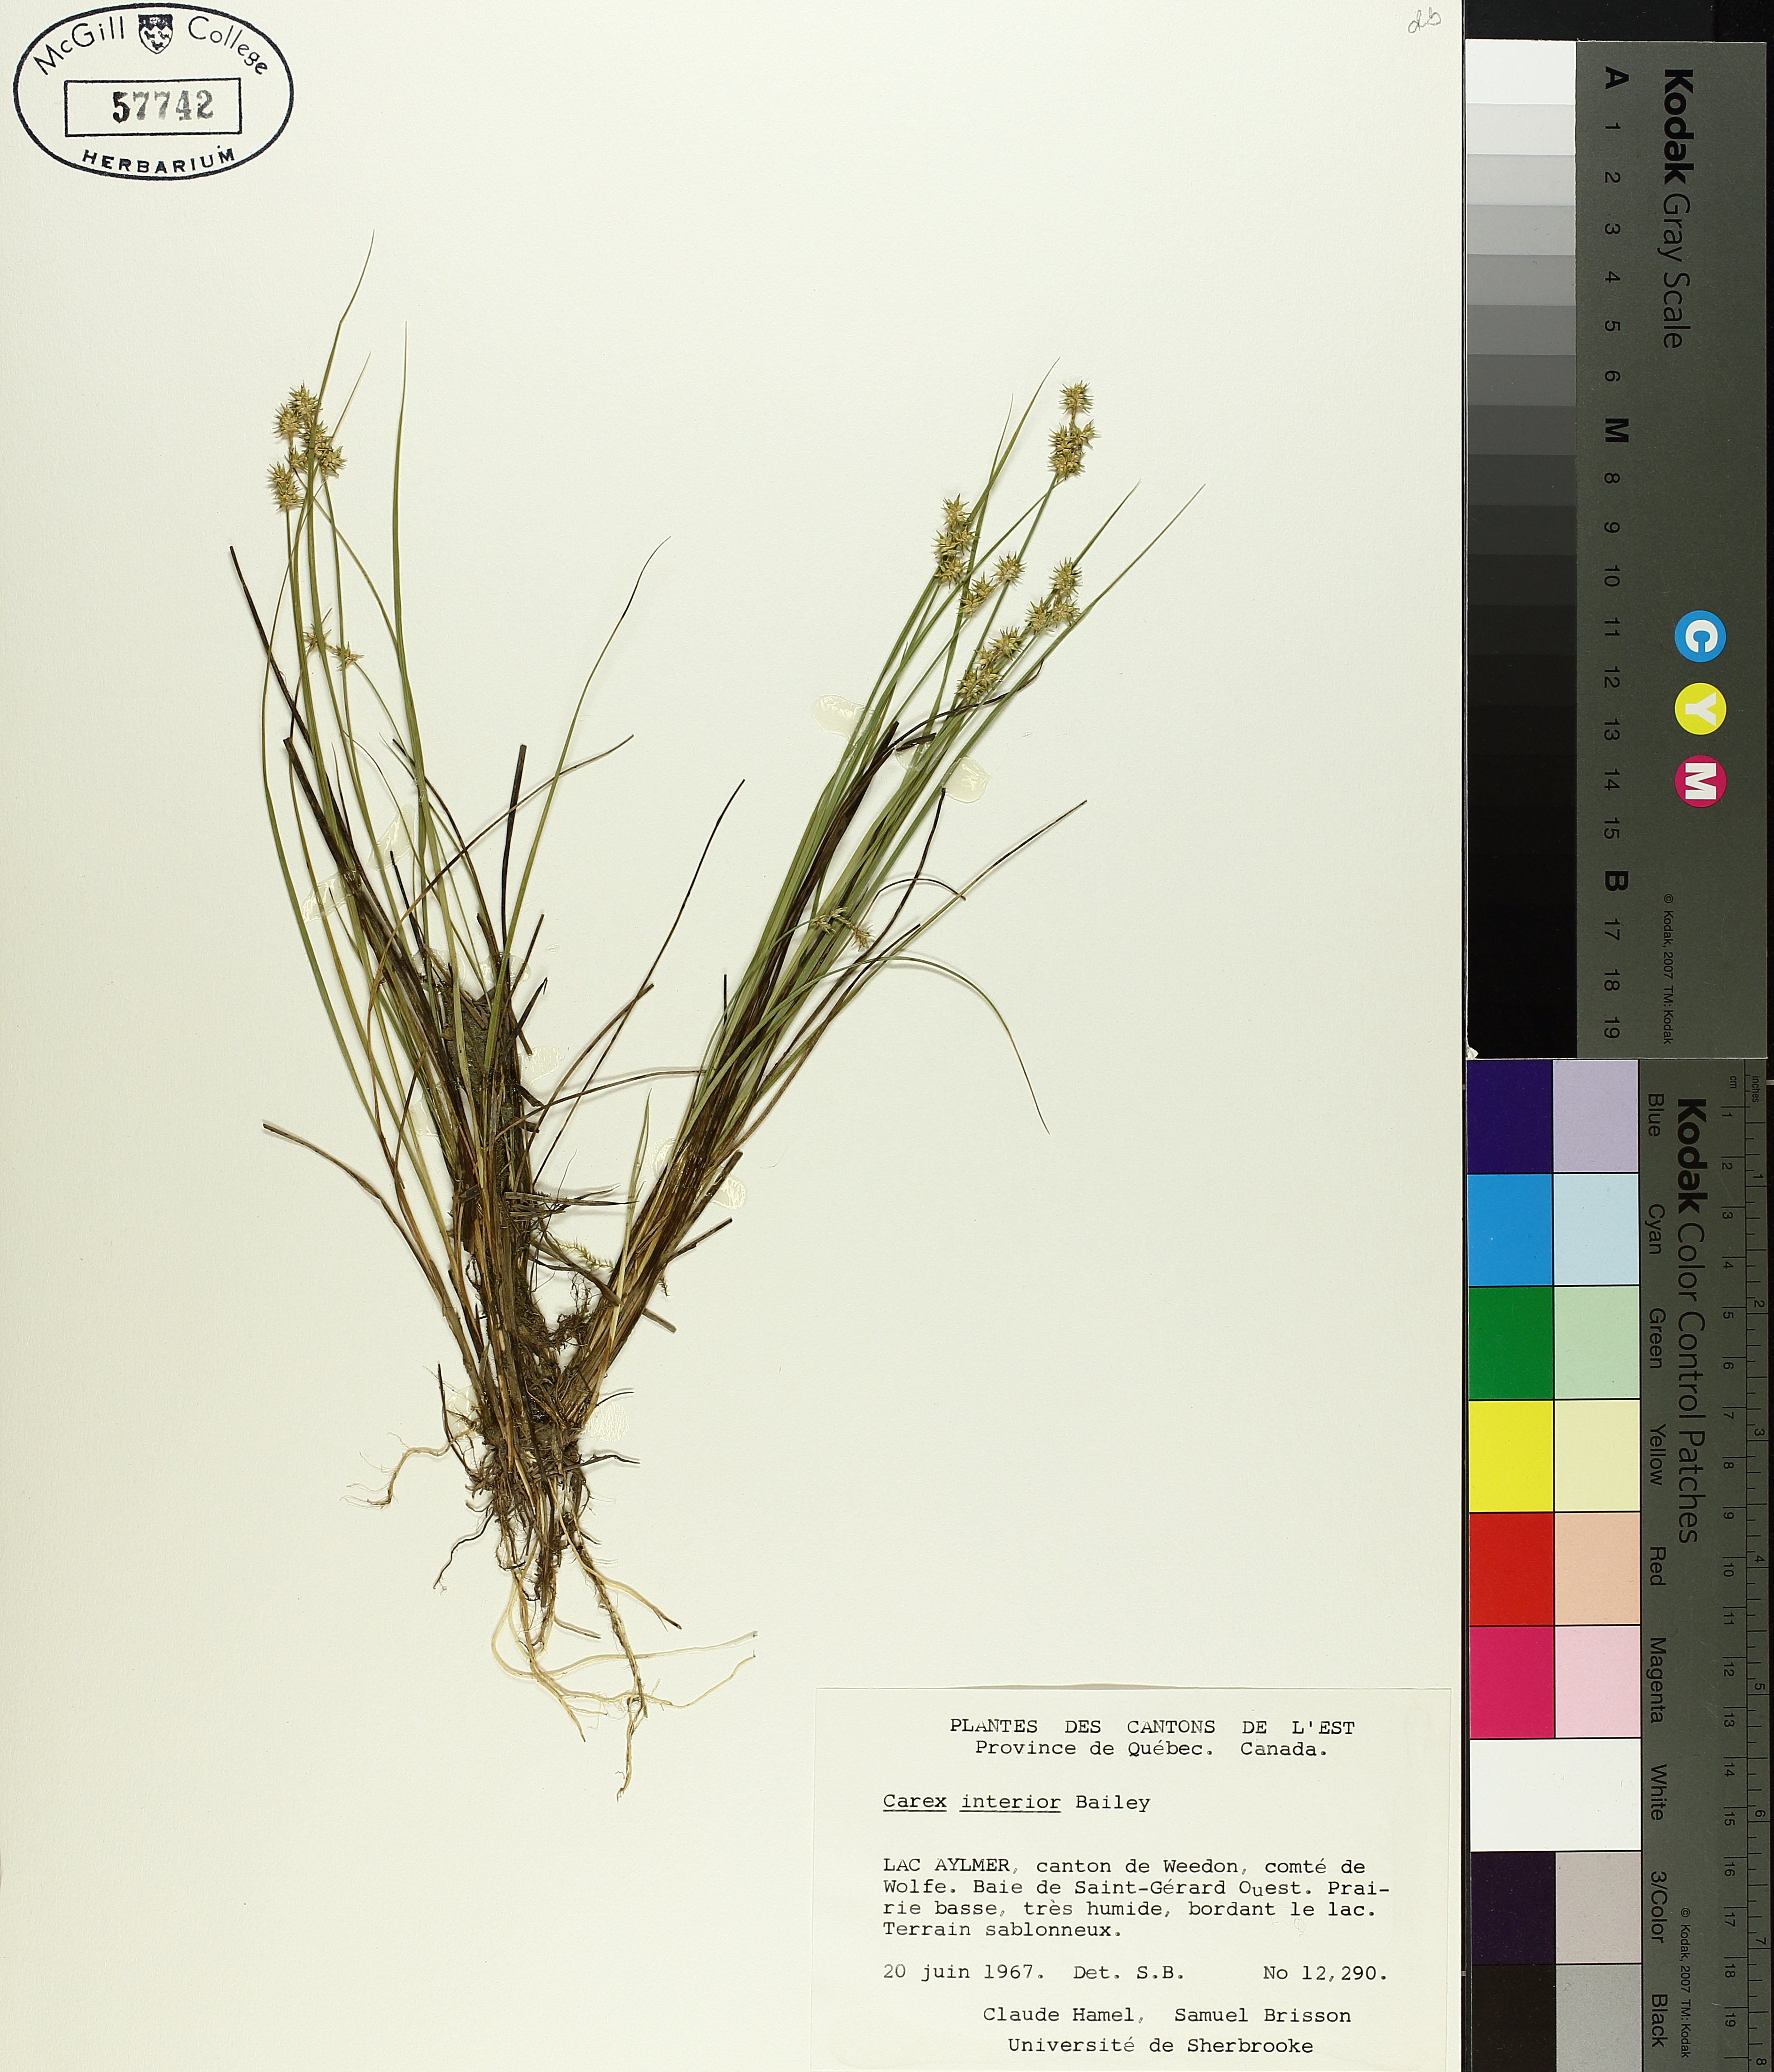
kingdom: Plantae
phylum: Tracheophyta
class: Liliopsida
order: Poales
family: Cyperaceae
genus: Carex
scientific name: Carex interior
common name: Inland sedge
